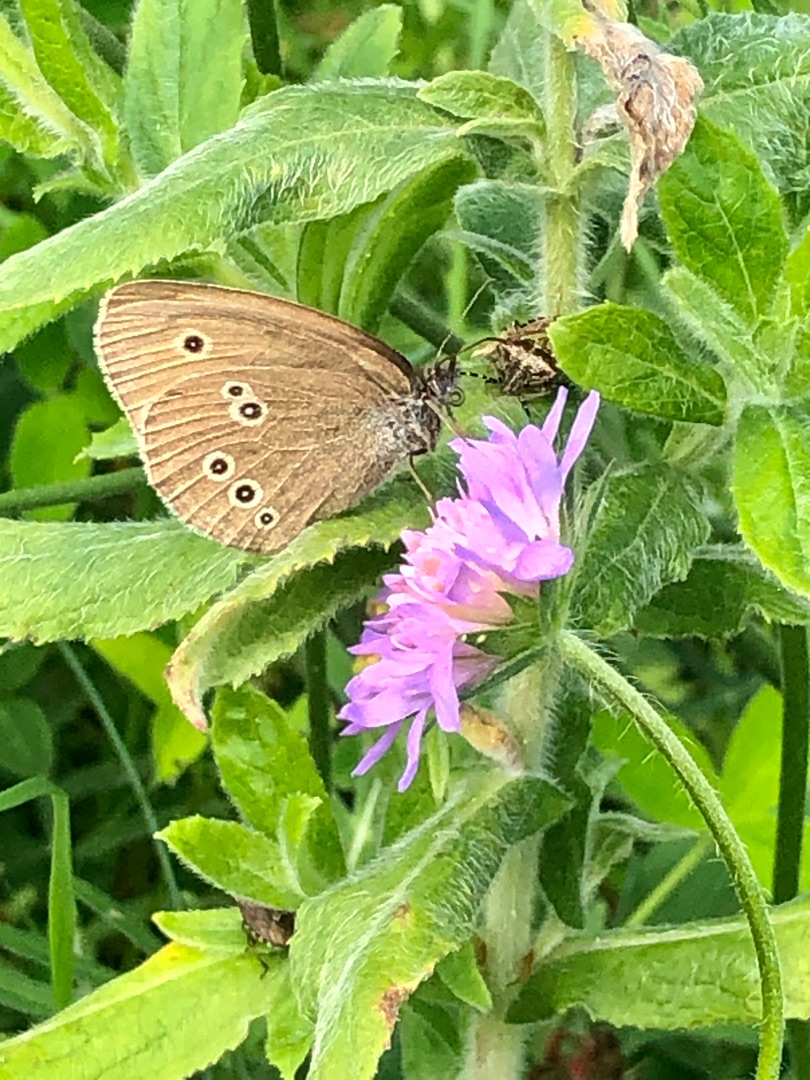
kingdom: Animalia
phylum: Arthropoda
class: Insecta
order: Lepidoptera
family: Nymphalidae
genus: Aphantopus
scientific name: Aphantopus hyperantus
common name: Engrandøje
